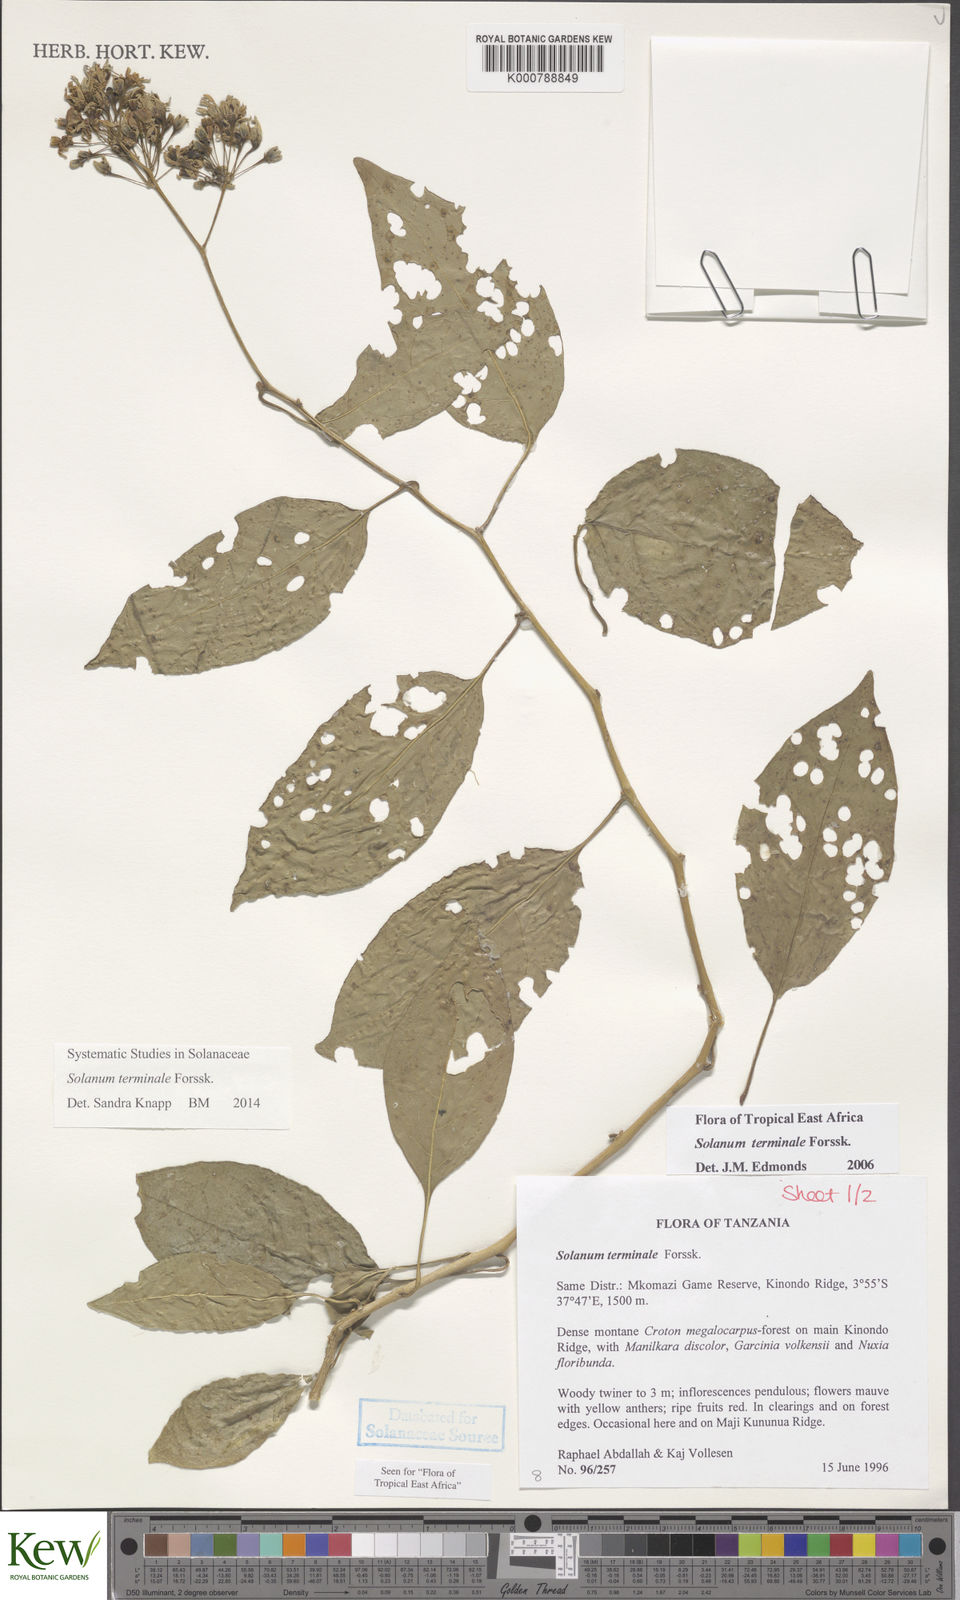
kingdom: Plantae
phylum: Tracheophyta
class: Magnoliopsida
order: Solanales
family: Solanaceae
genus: Solanum
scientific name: Solanum terminale
